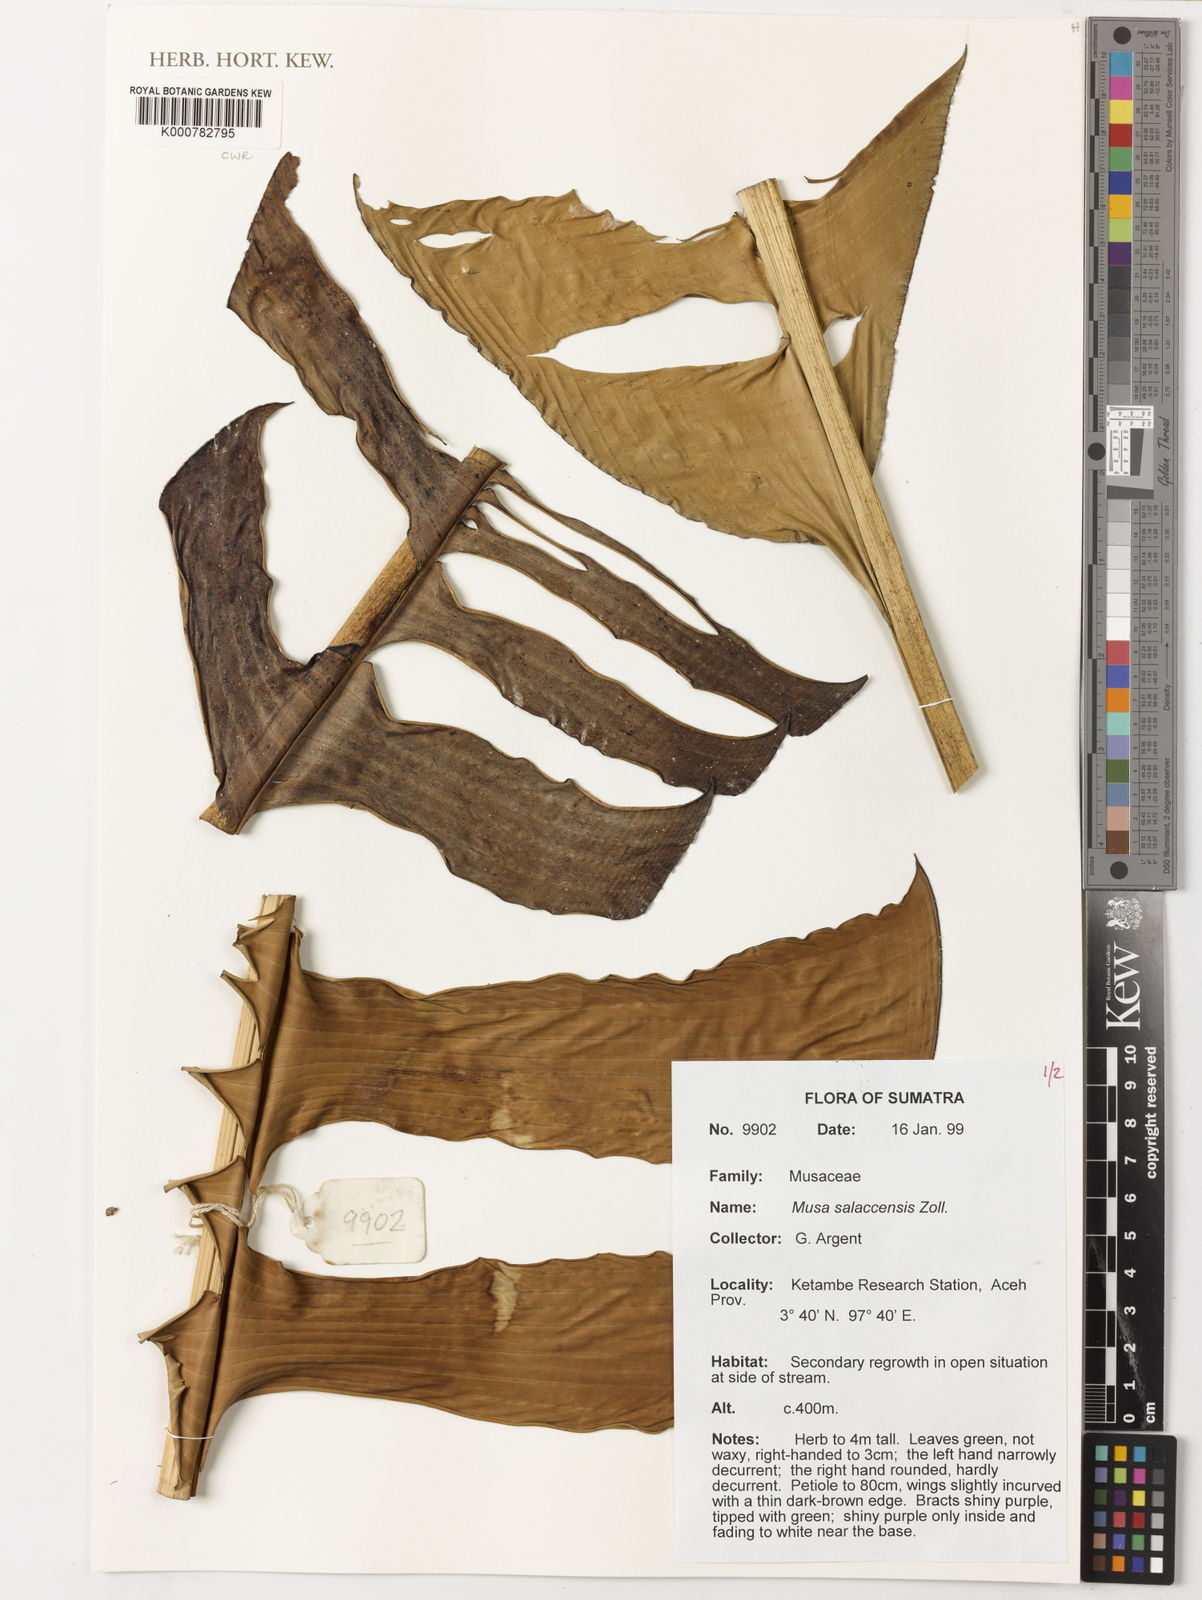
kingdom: Plantae
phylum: Tracheophyta
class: Liliopsida
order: Zingiberales
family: Musaceae
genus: Musa
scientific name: Musa
